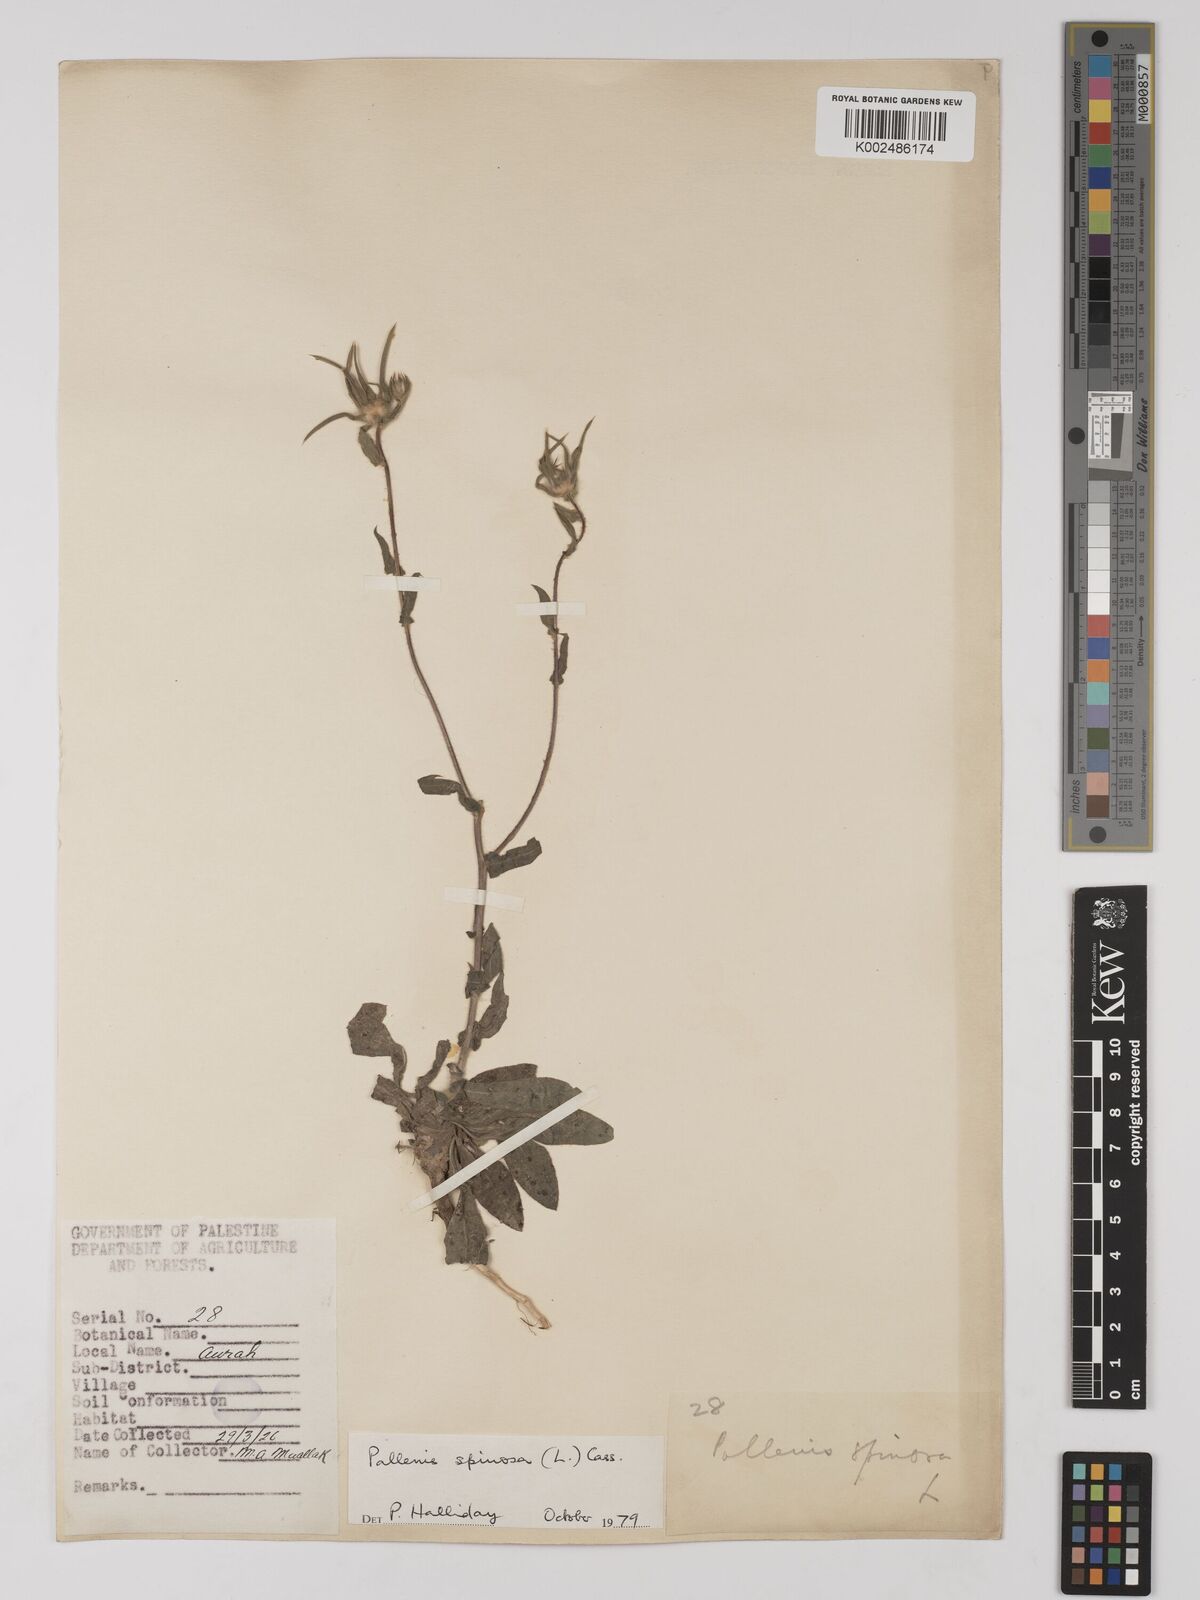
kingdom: Plantae
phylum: Tracheophyta
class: Magnoliopsida
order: Asterales
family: Asteraceae
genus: Pallenis
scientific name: Pallenis spinosa
